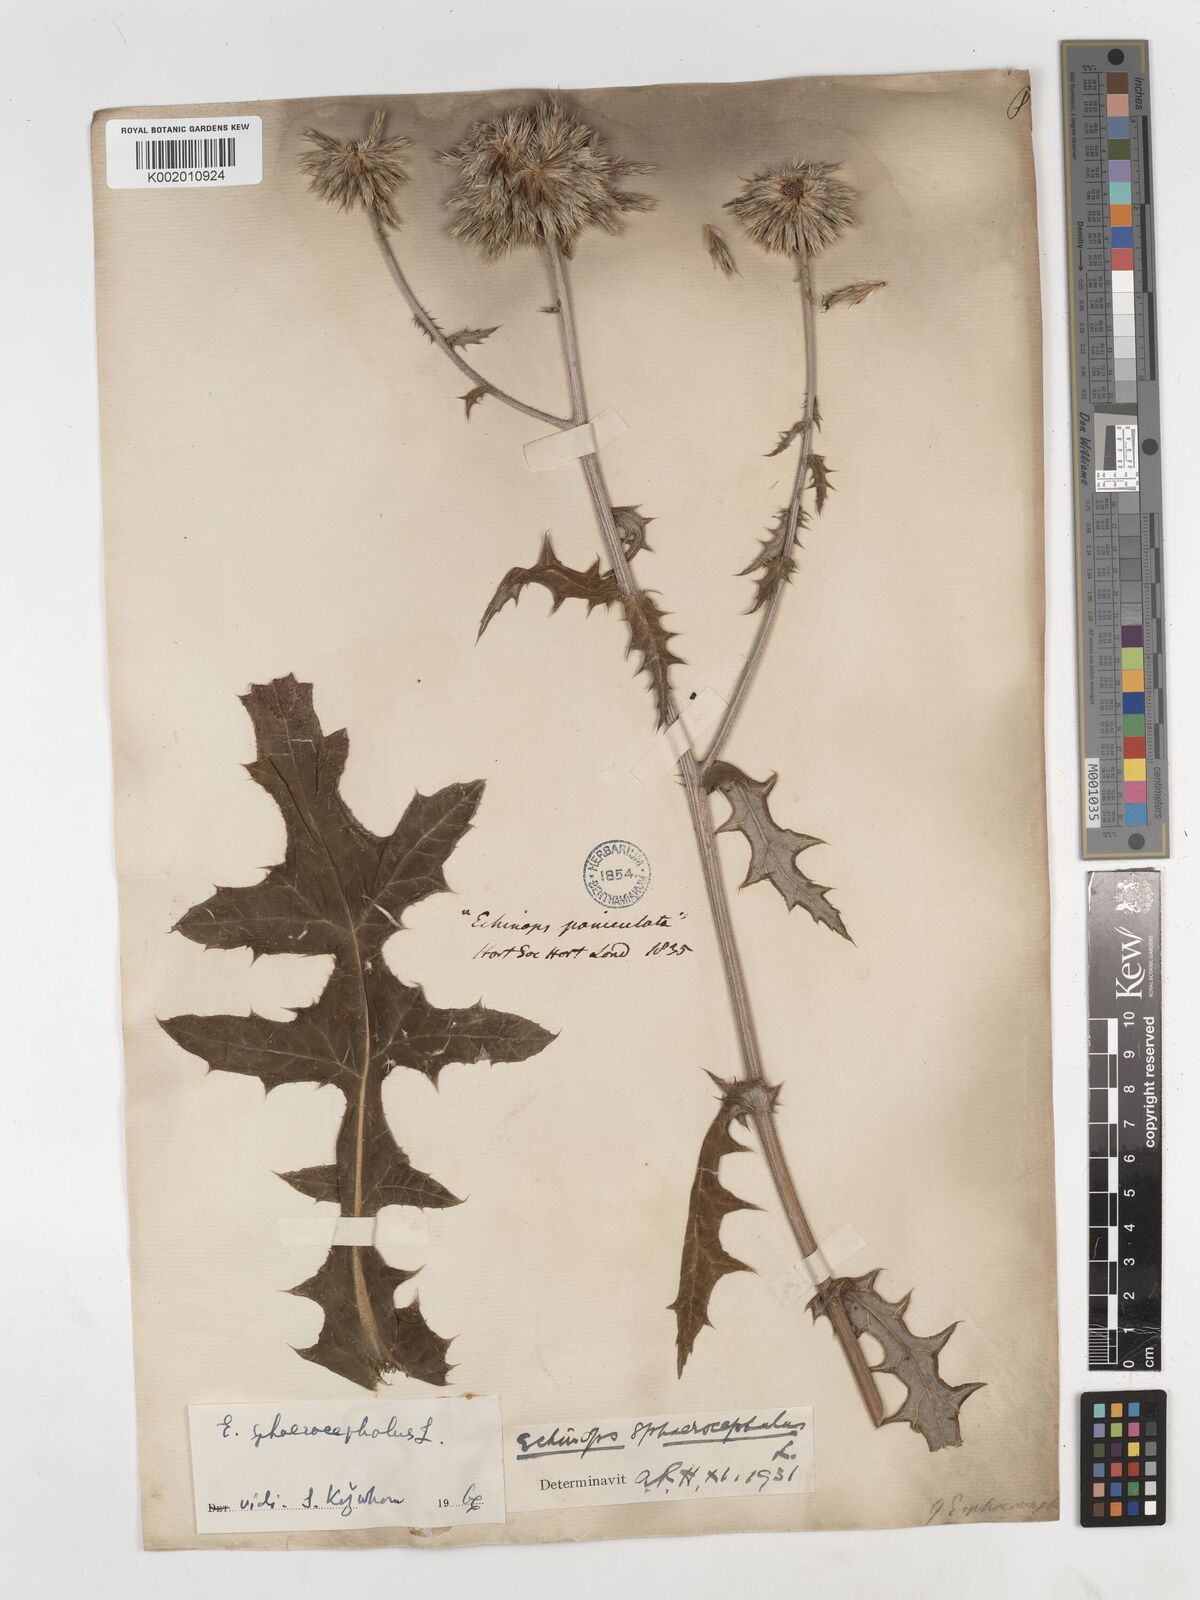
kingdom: Plantae
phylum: Tracheophyta
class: Magnoliopsida
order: Asterales
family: Asteraceae
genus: Echinops
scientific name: Echinops sphaerocephalus
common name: Glandular globe-thistle
